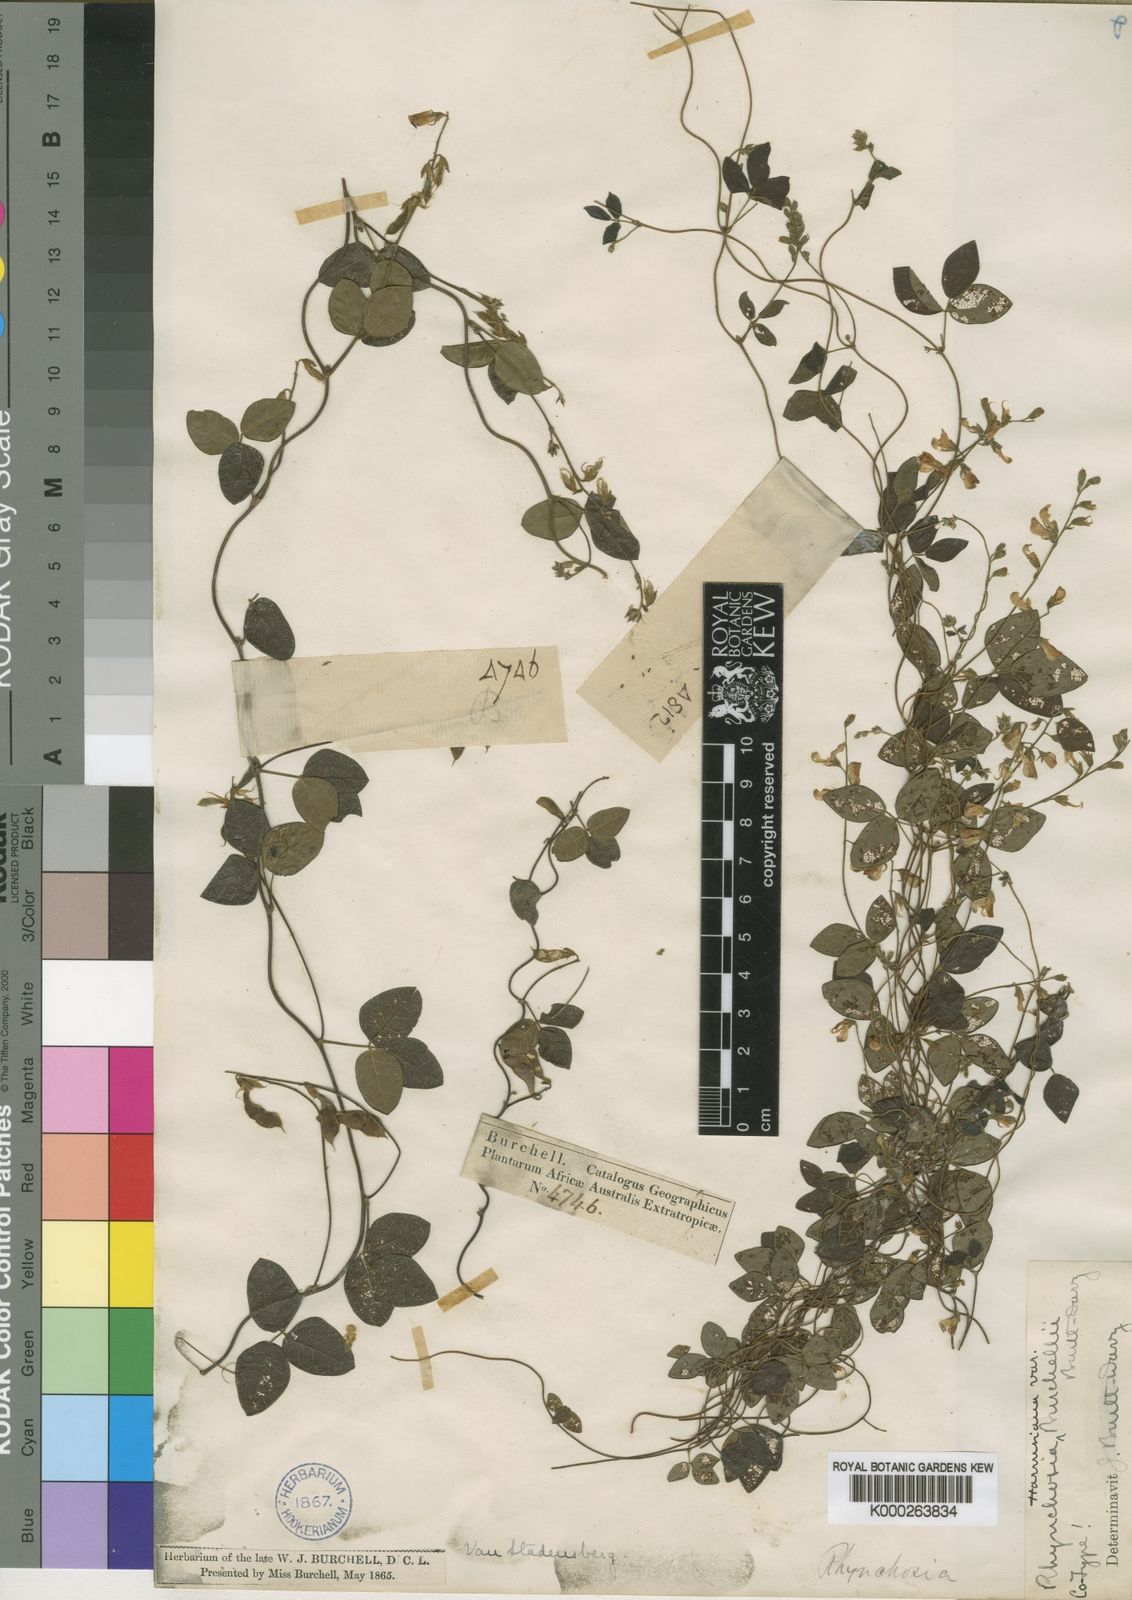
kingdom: Plantae
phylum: Tracheophyta
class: Magnoliopsida
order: Fabales
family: Fabaceae
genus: Rhynchosia
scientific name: Rhynchosia harmsiana
